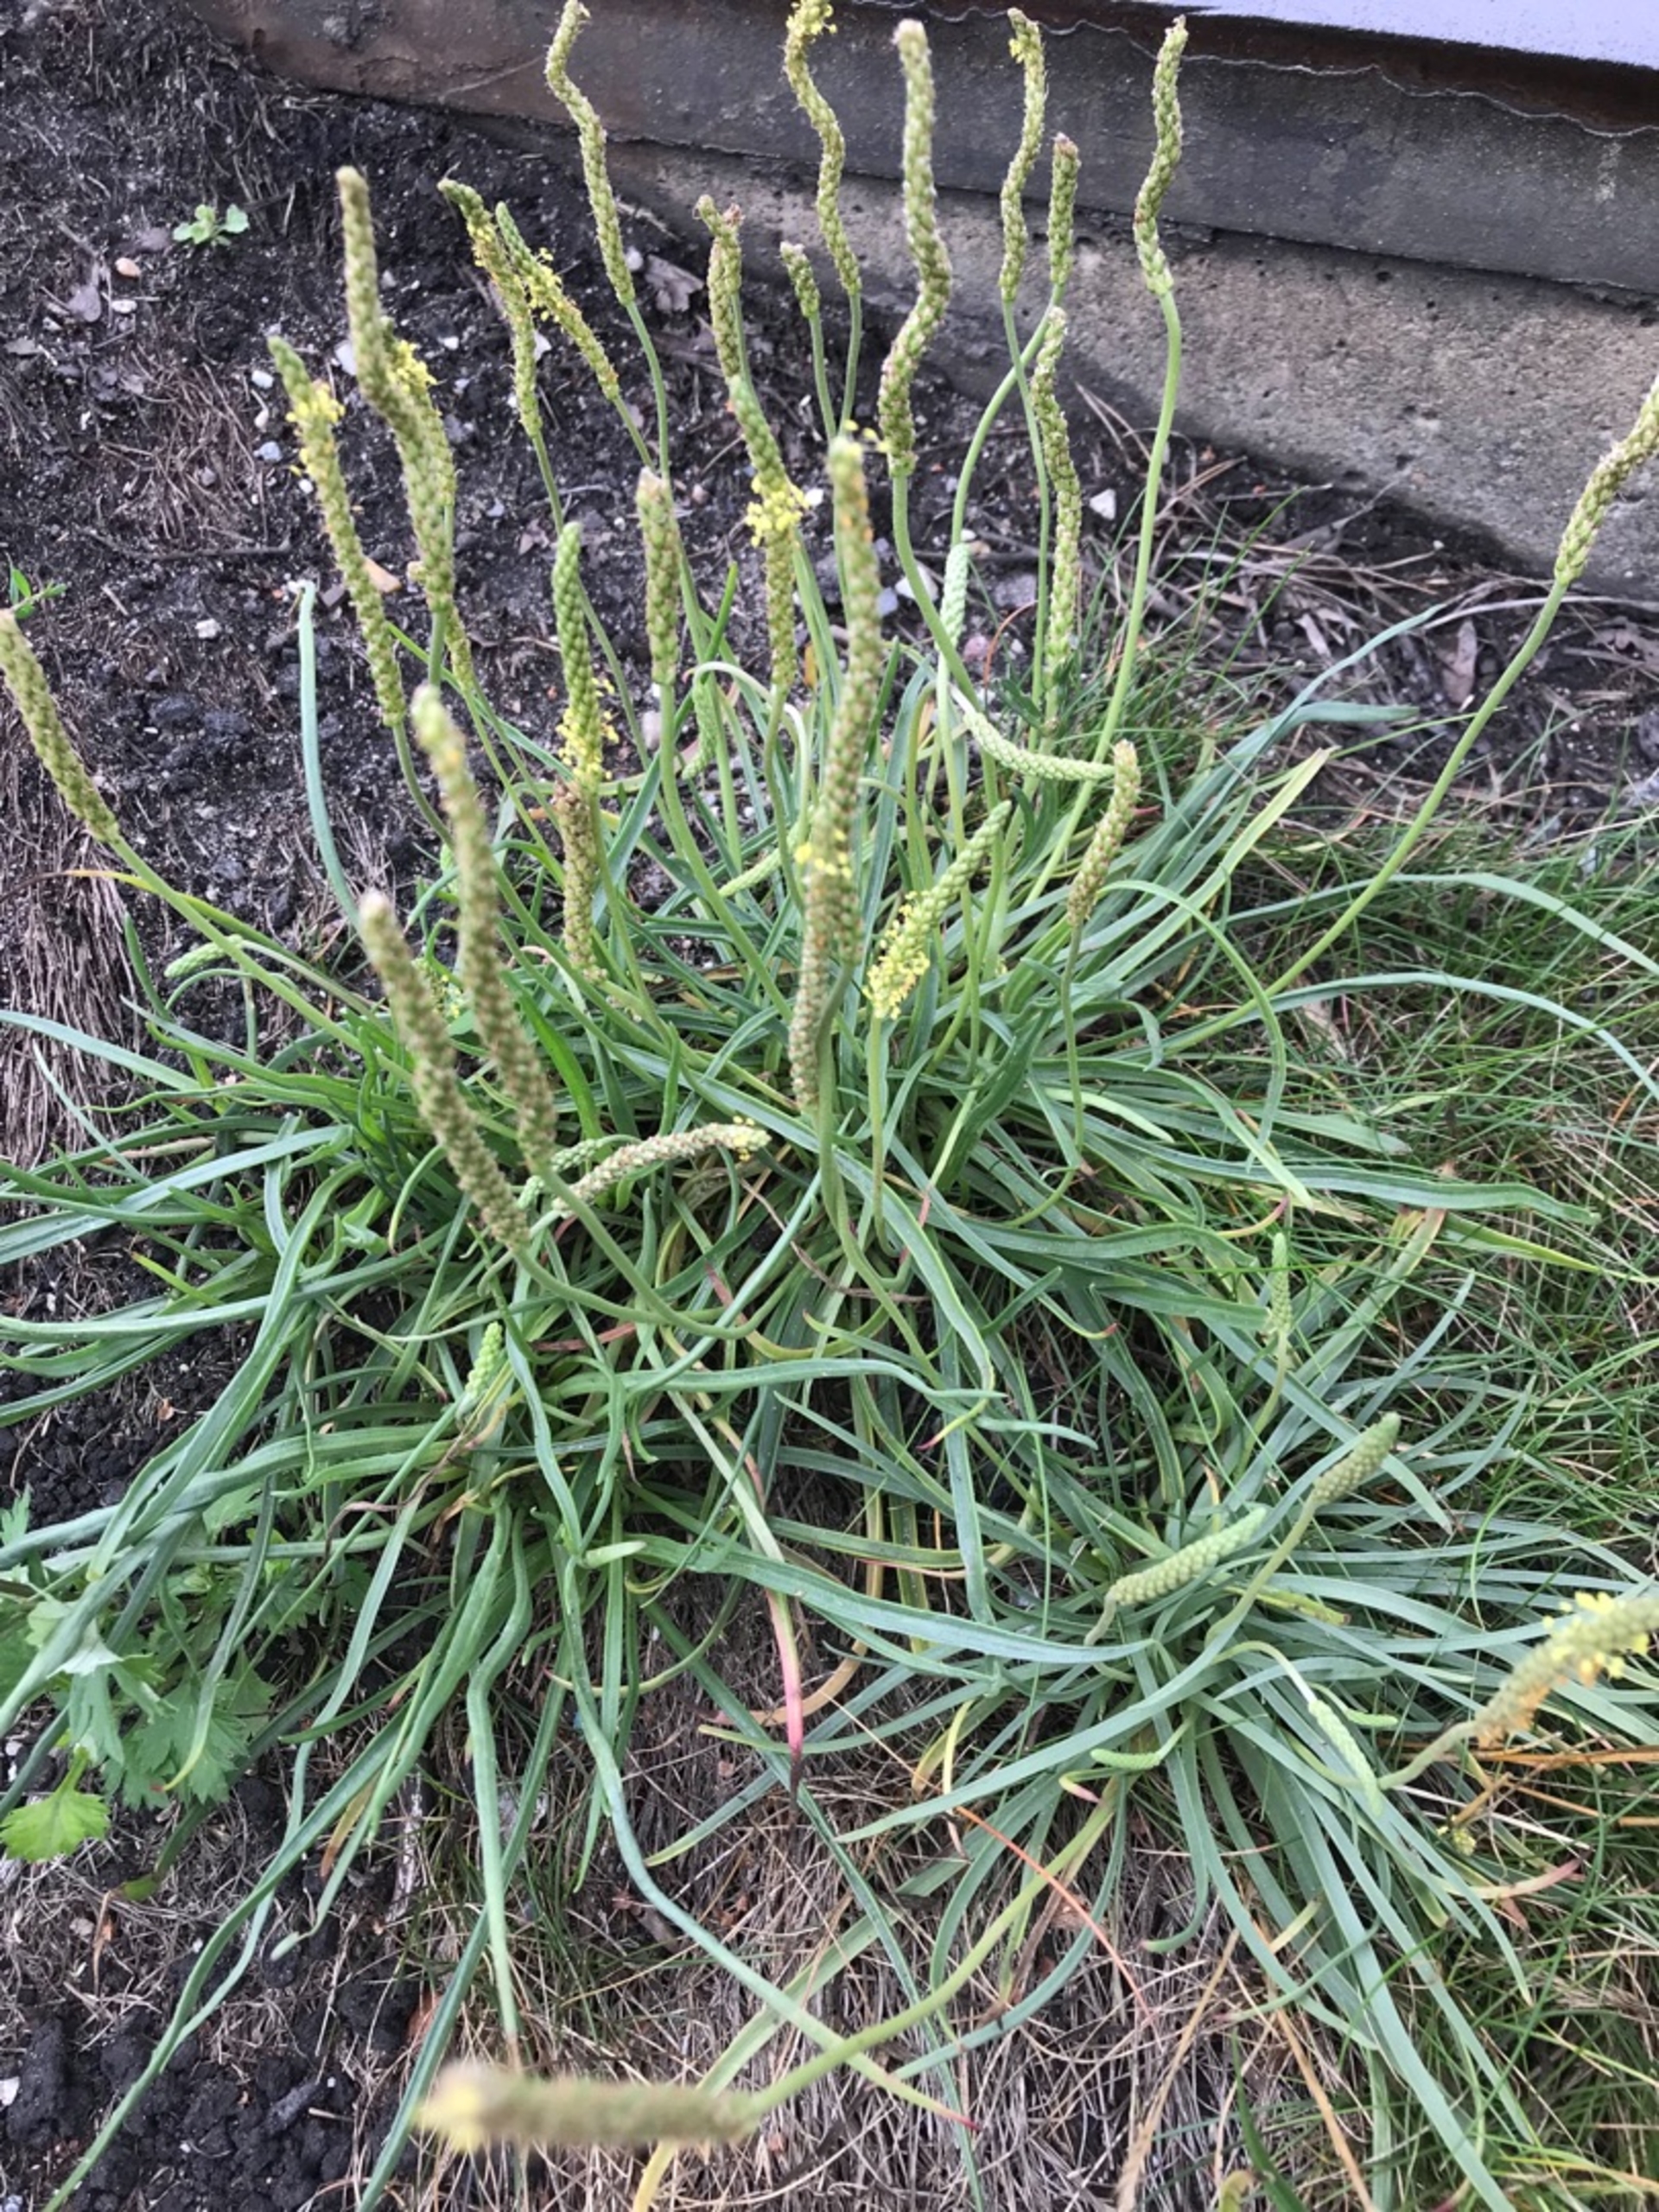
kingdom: Plantae
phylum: Tracheophyta
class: Magnoliopsida
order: Lamiales
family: Plantaginaceae
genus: Plantago
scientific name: Plantago maritima
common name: Strand-vejbred
